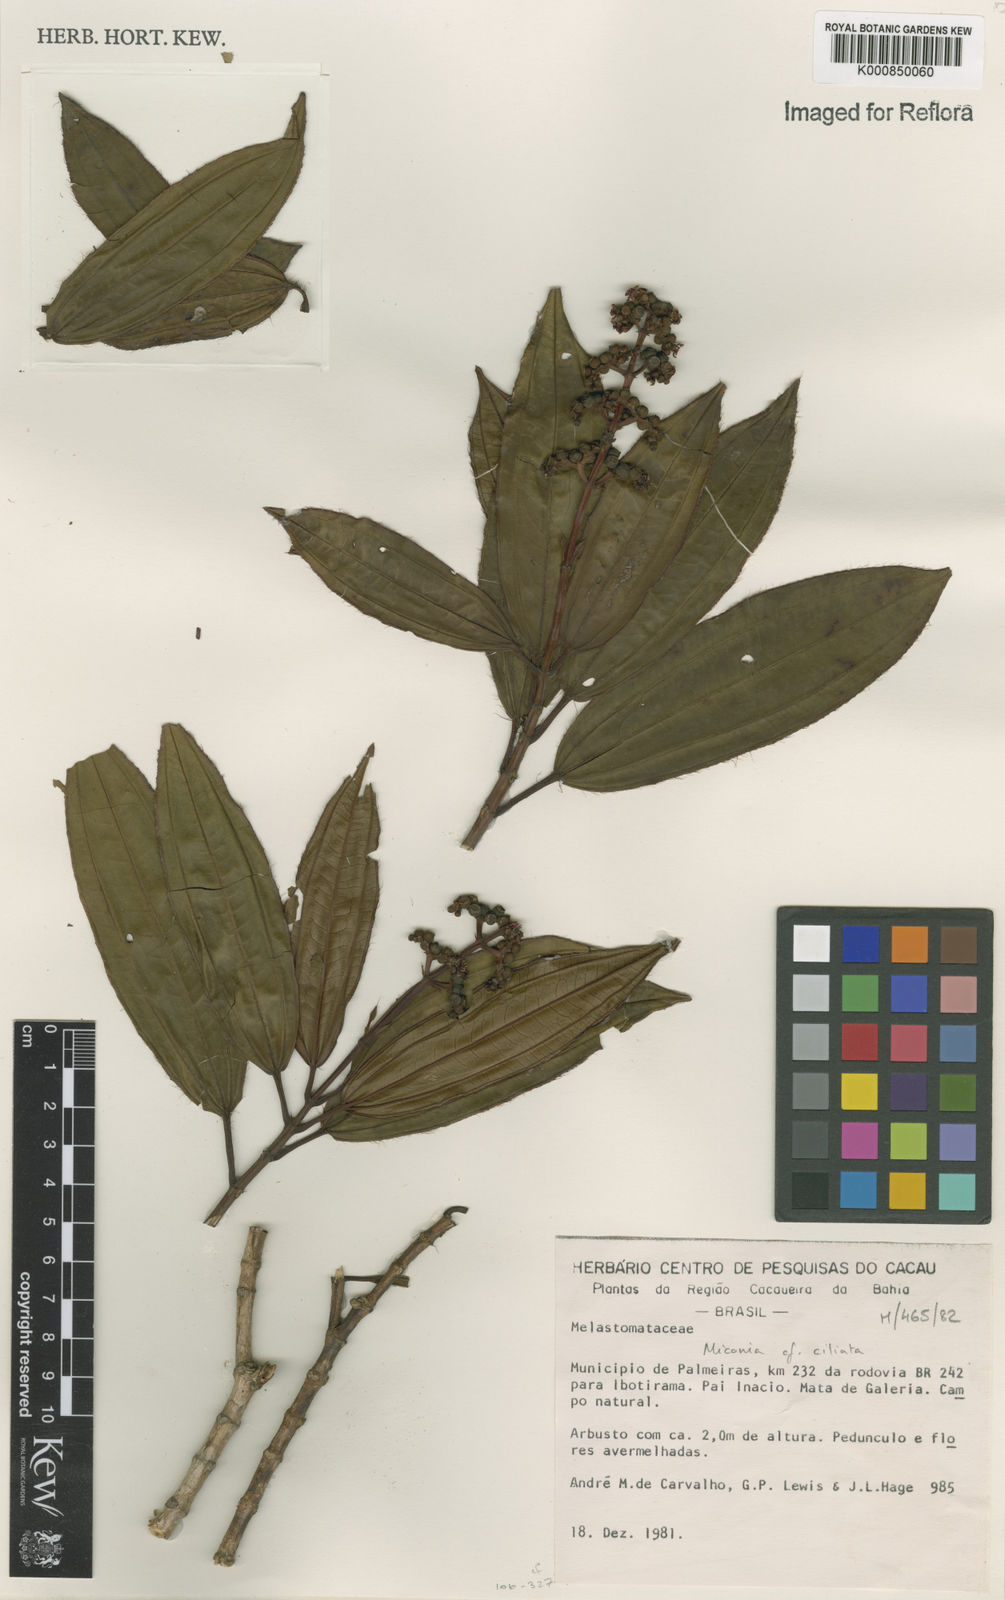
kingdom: Plantae
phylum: Tracheophyta
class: Magnoliopsida
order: Myrtales
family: Melastomataceae
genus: Miconia
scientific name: Miconia ciliata
